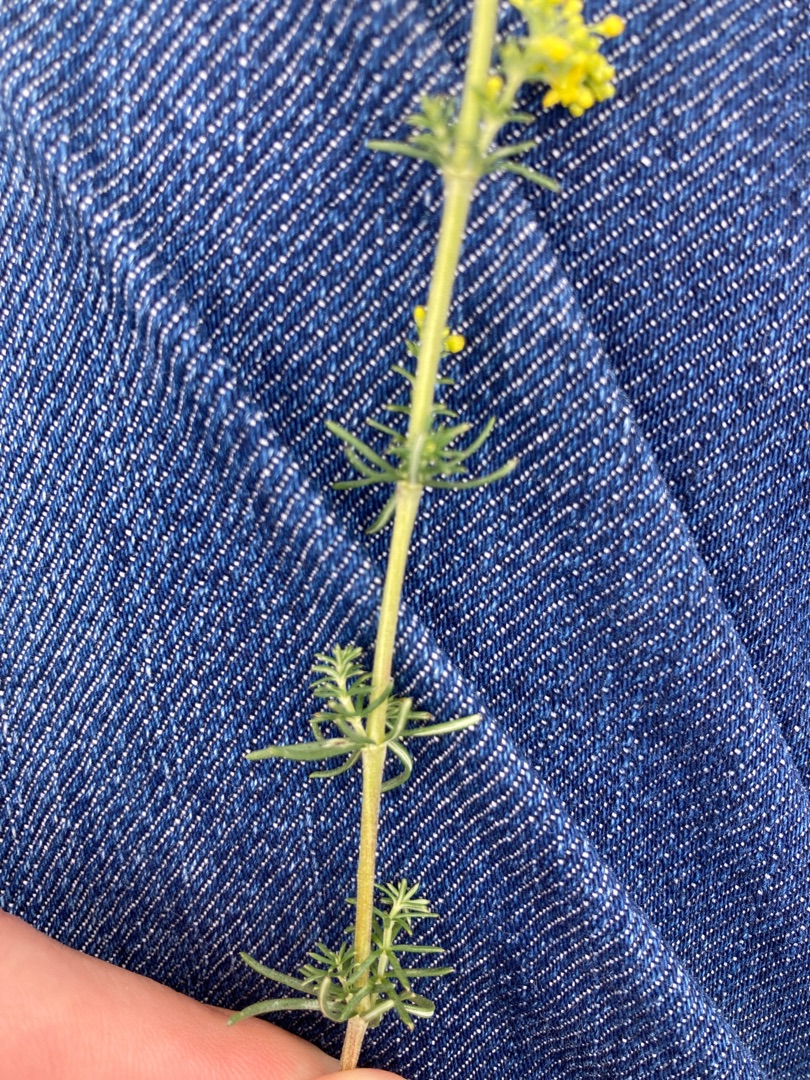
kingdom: Plantae
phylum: Tracheophyta
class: Magnoliopsida
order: Gentianales
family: Rubiaceae
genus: Galium
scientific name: Galium verum
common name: Gul snerre
